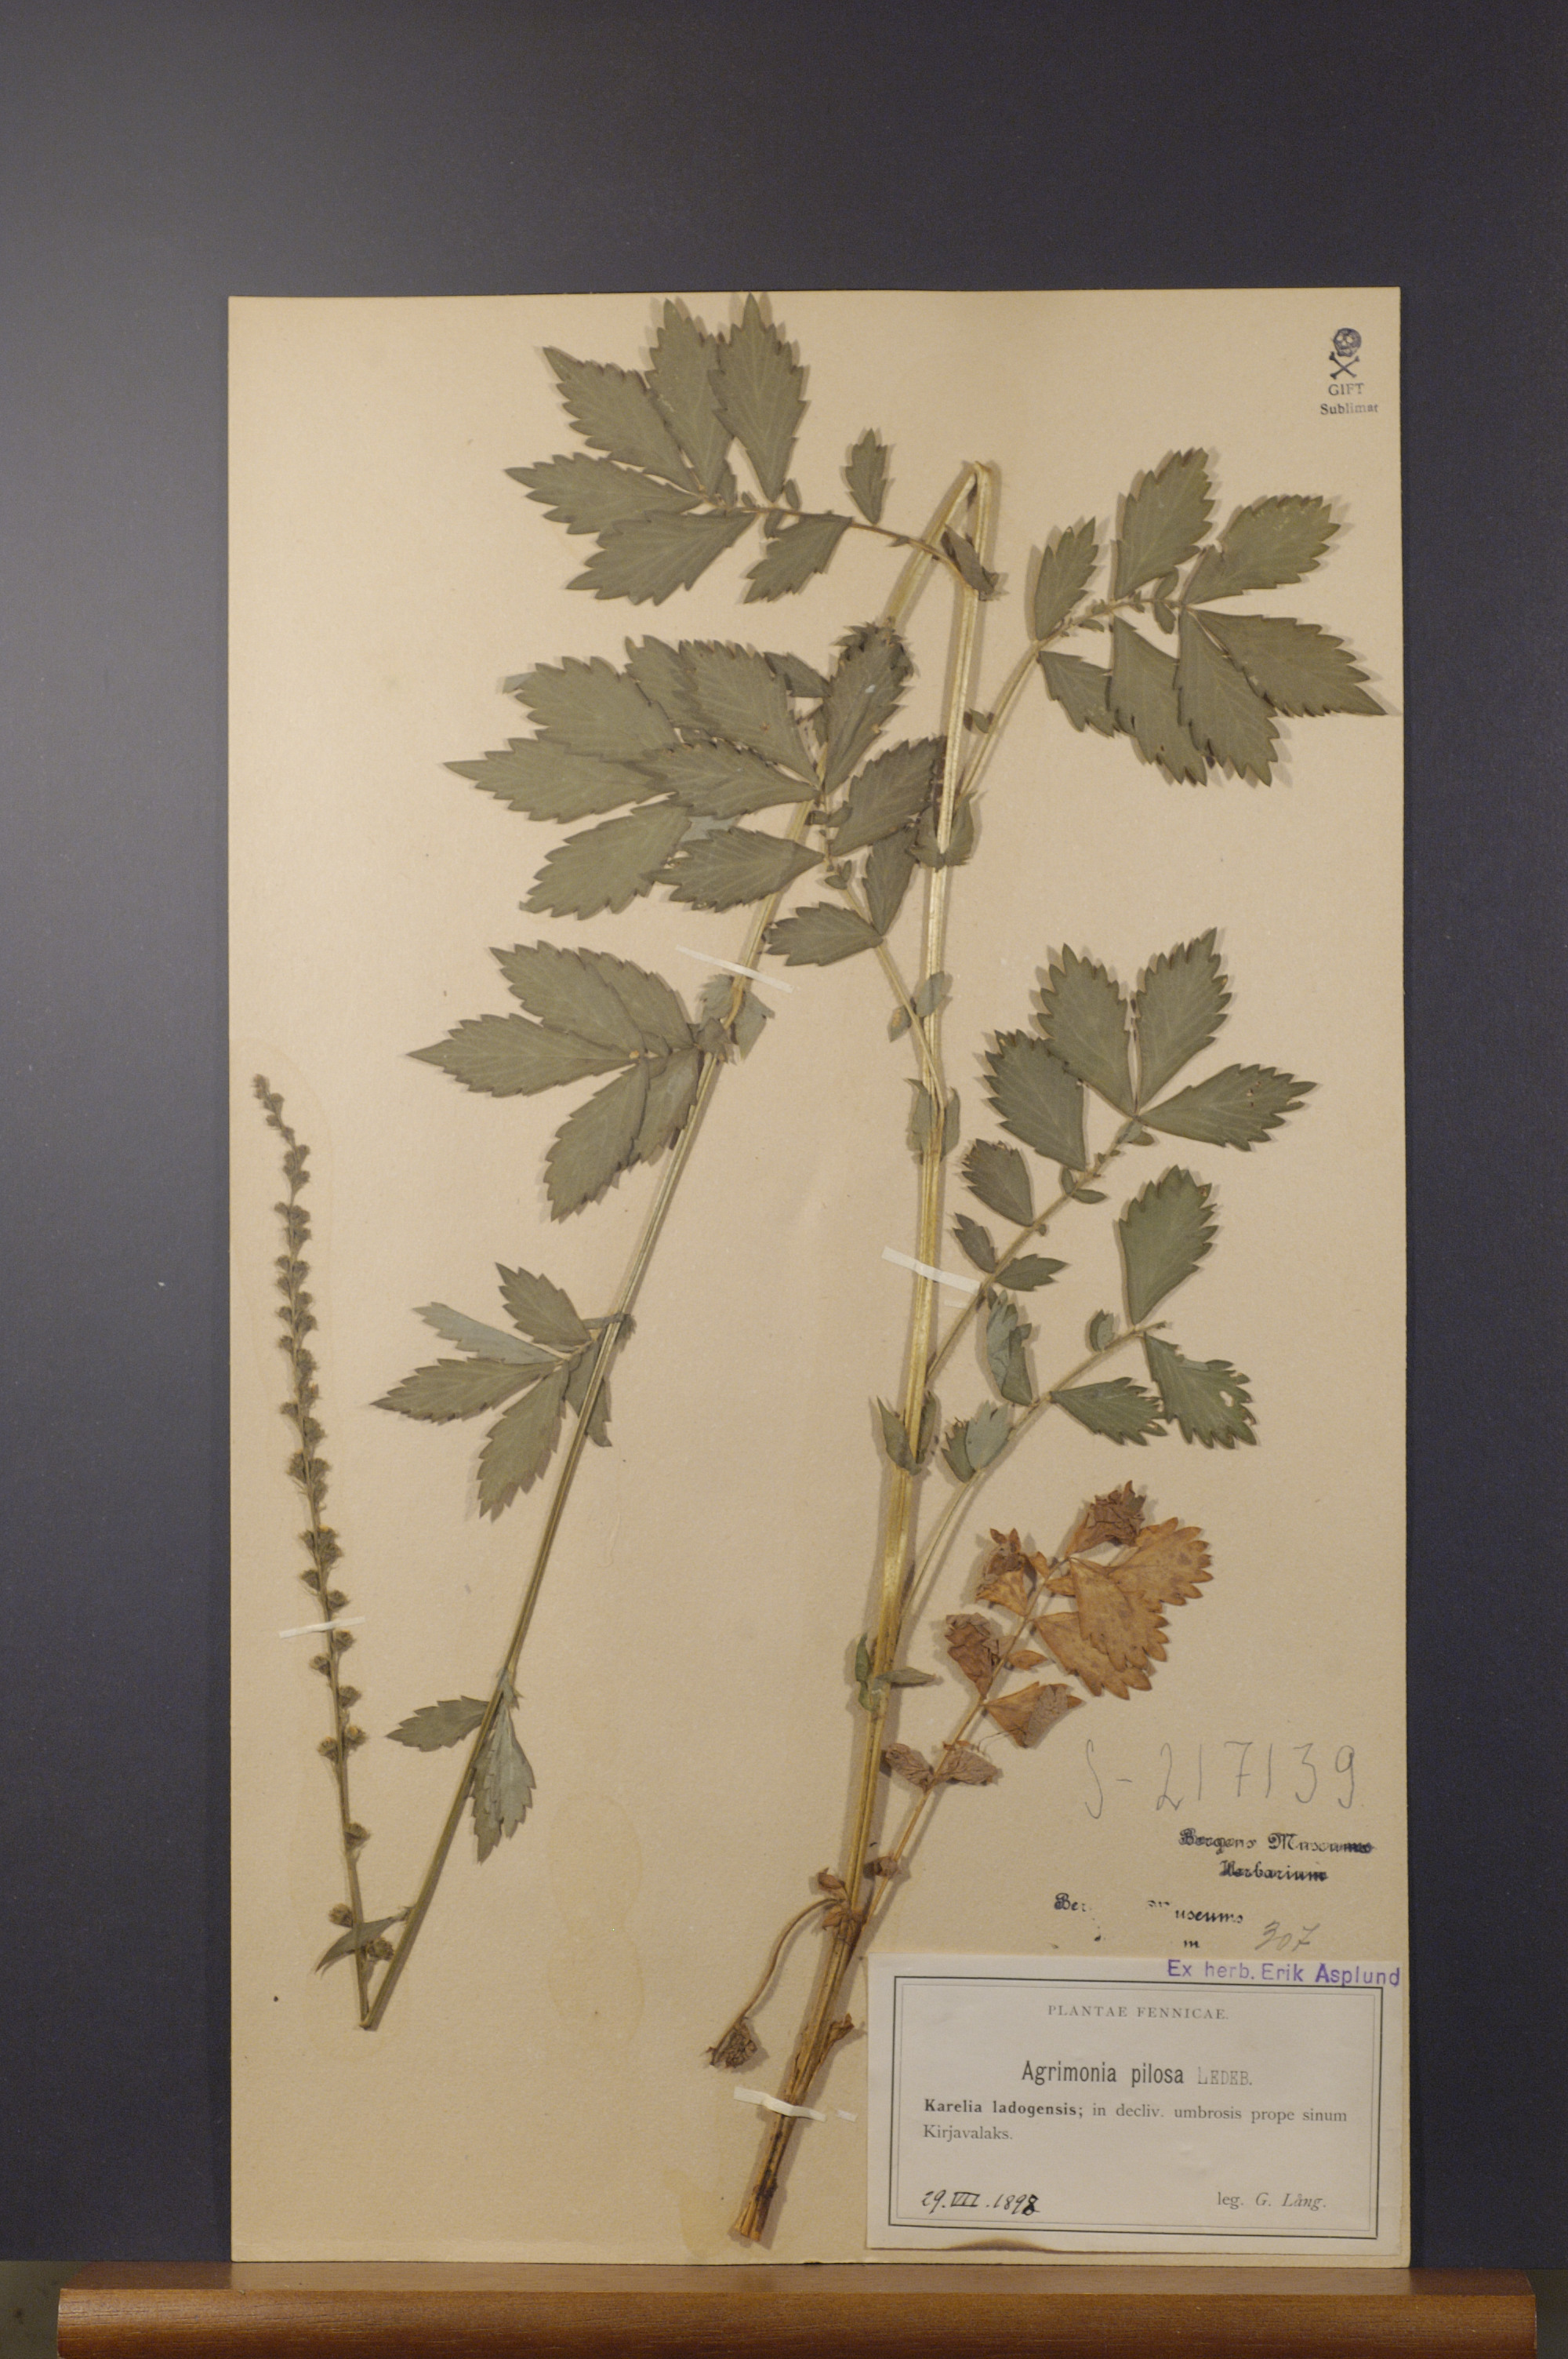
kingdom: Plantae
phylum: Tracheophyta
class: Magnoliopsida
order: Rosales
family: Rosaceae
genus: Agrimonia
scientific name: Agrimonia pilosa
